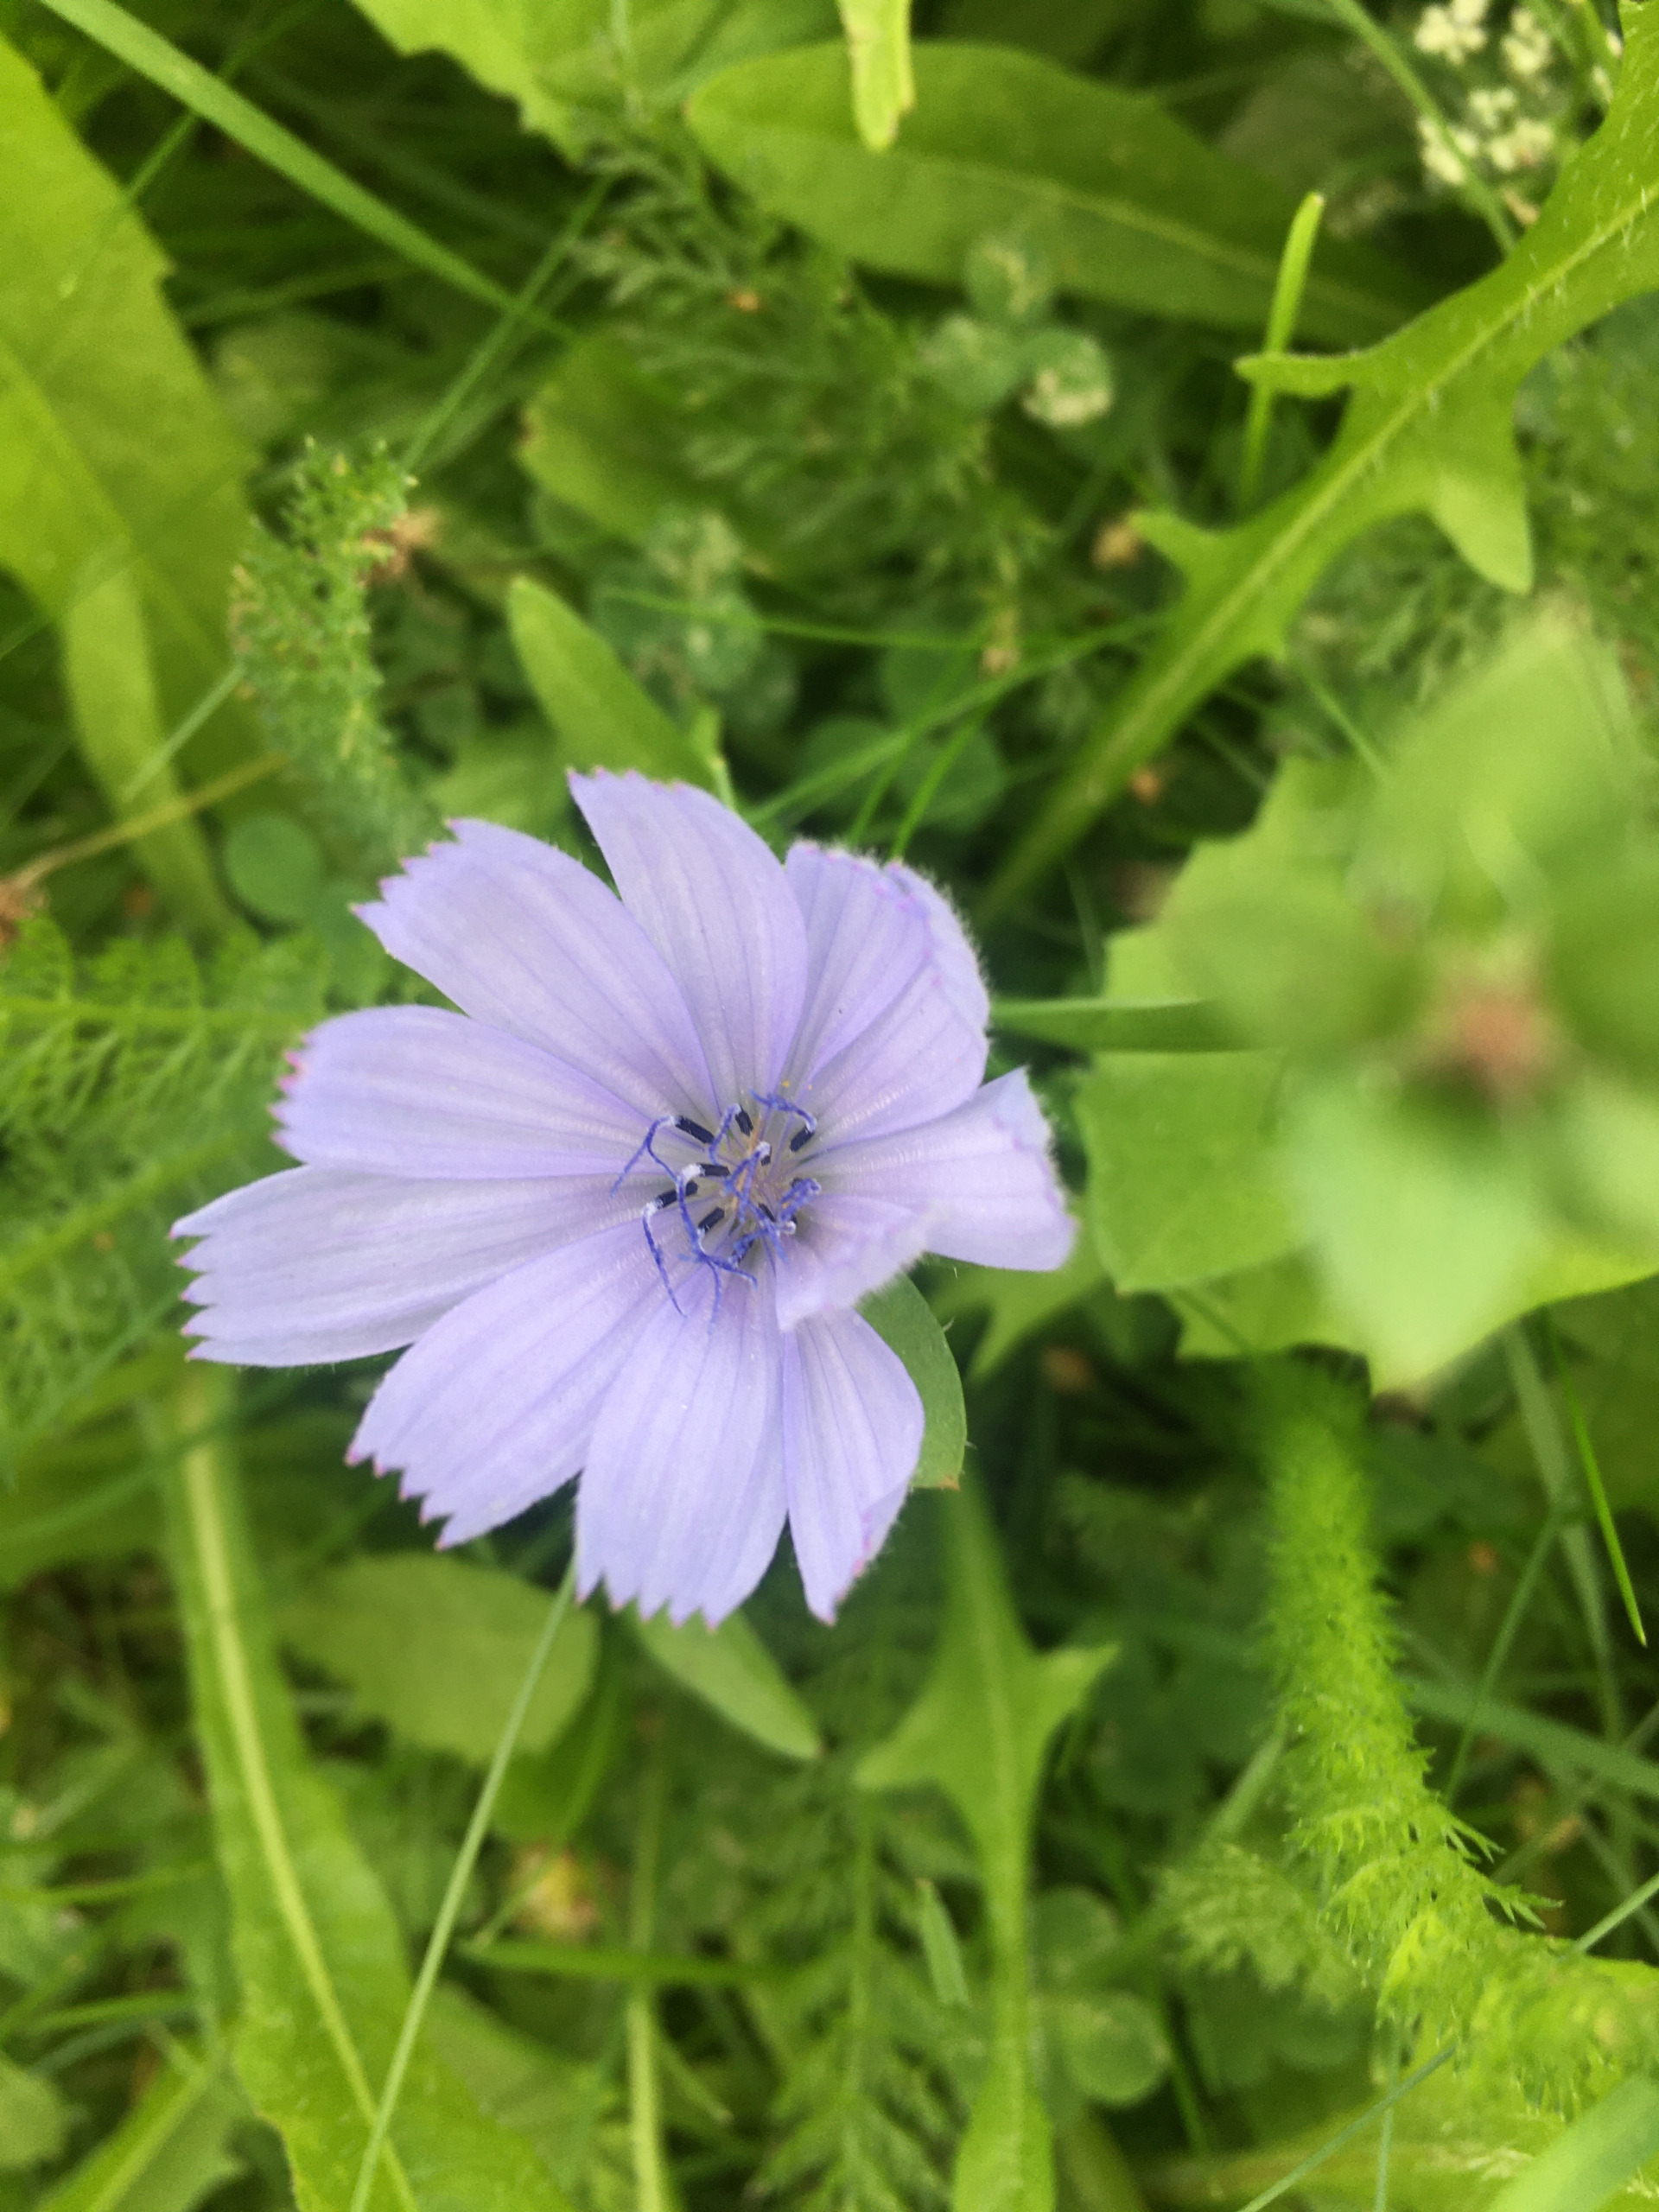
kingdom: Plantae
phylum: Tracheophyta
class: Magnoliopsida
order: Asterales
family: Asteraceae
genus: Cichorium
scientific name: Cichorium intybus
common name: Cikorie
